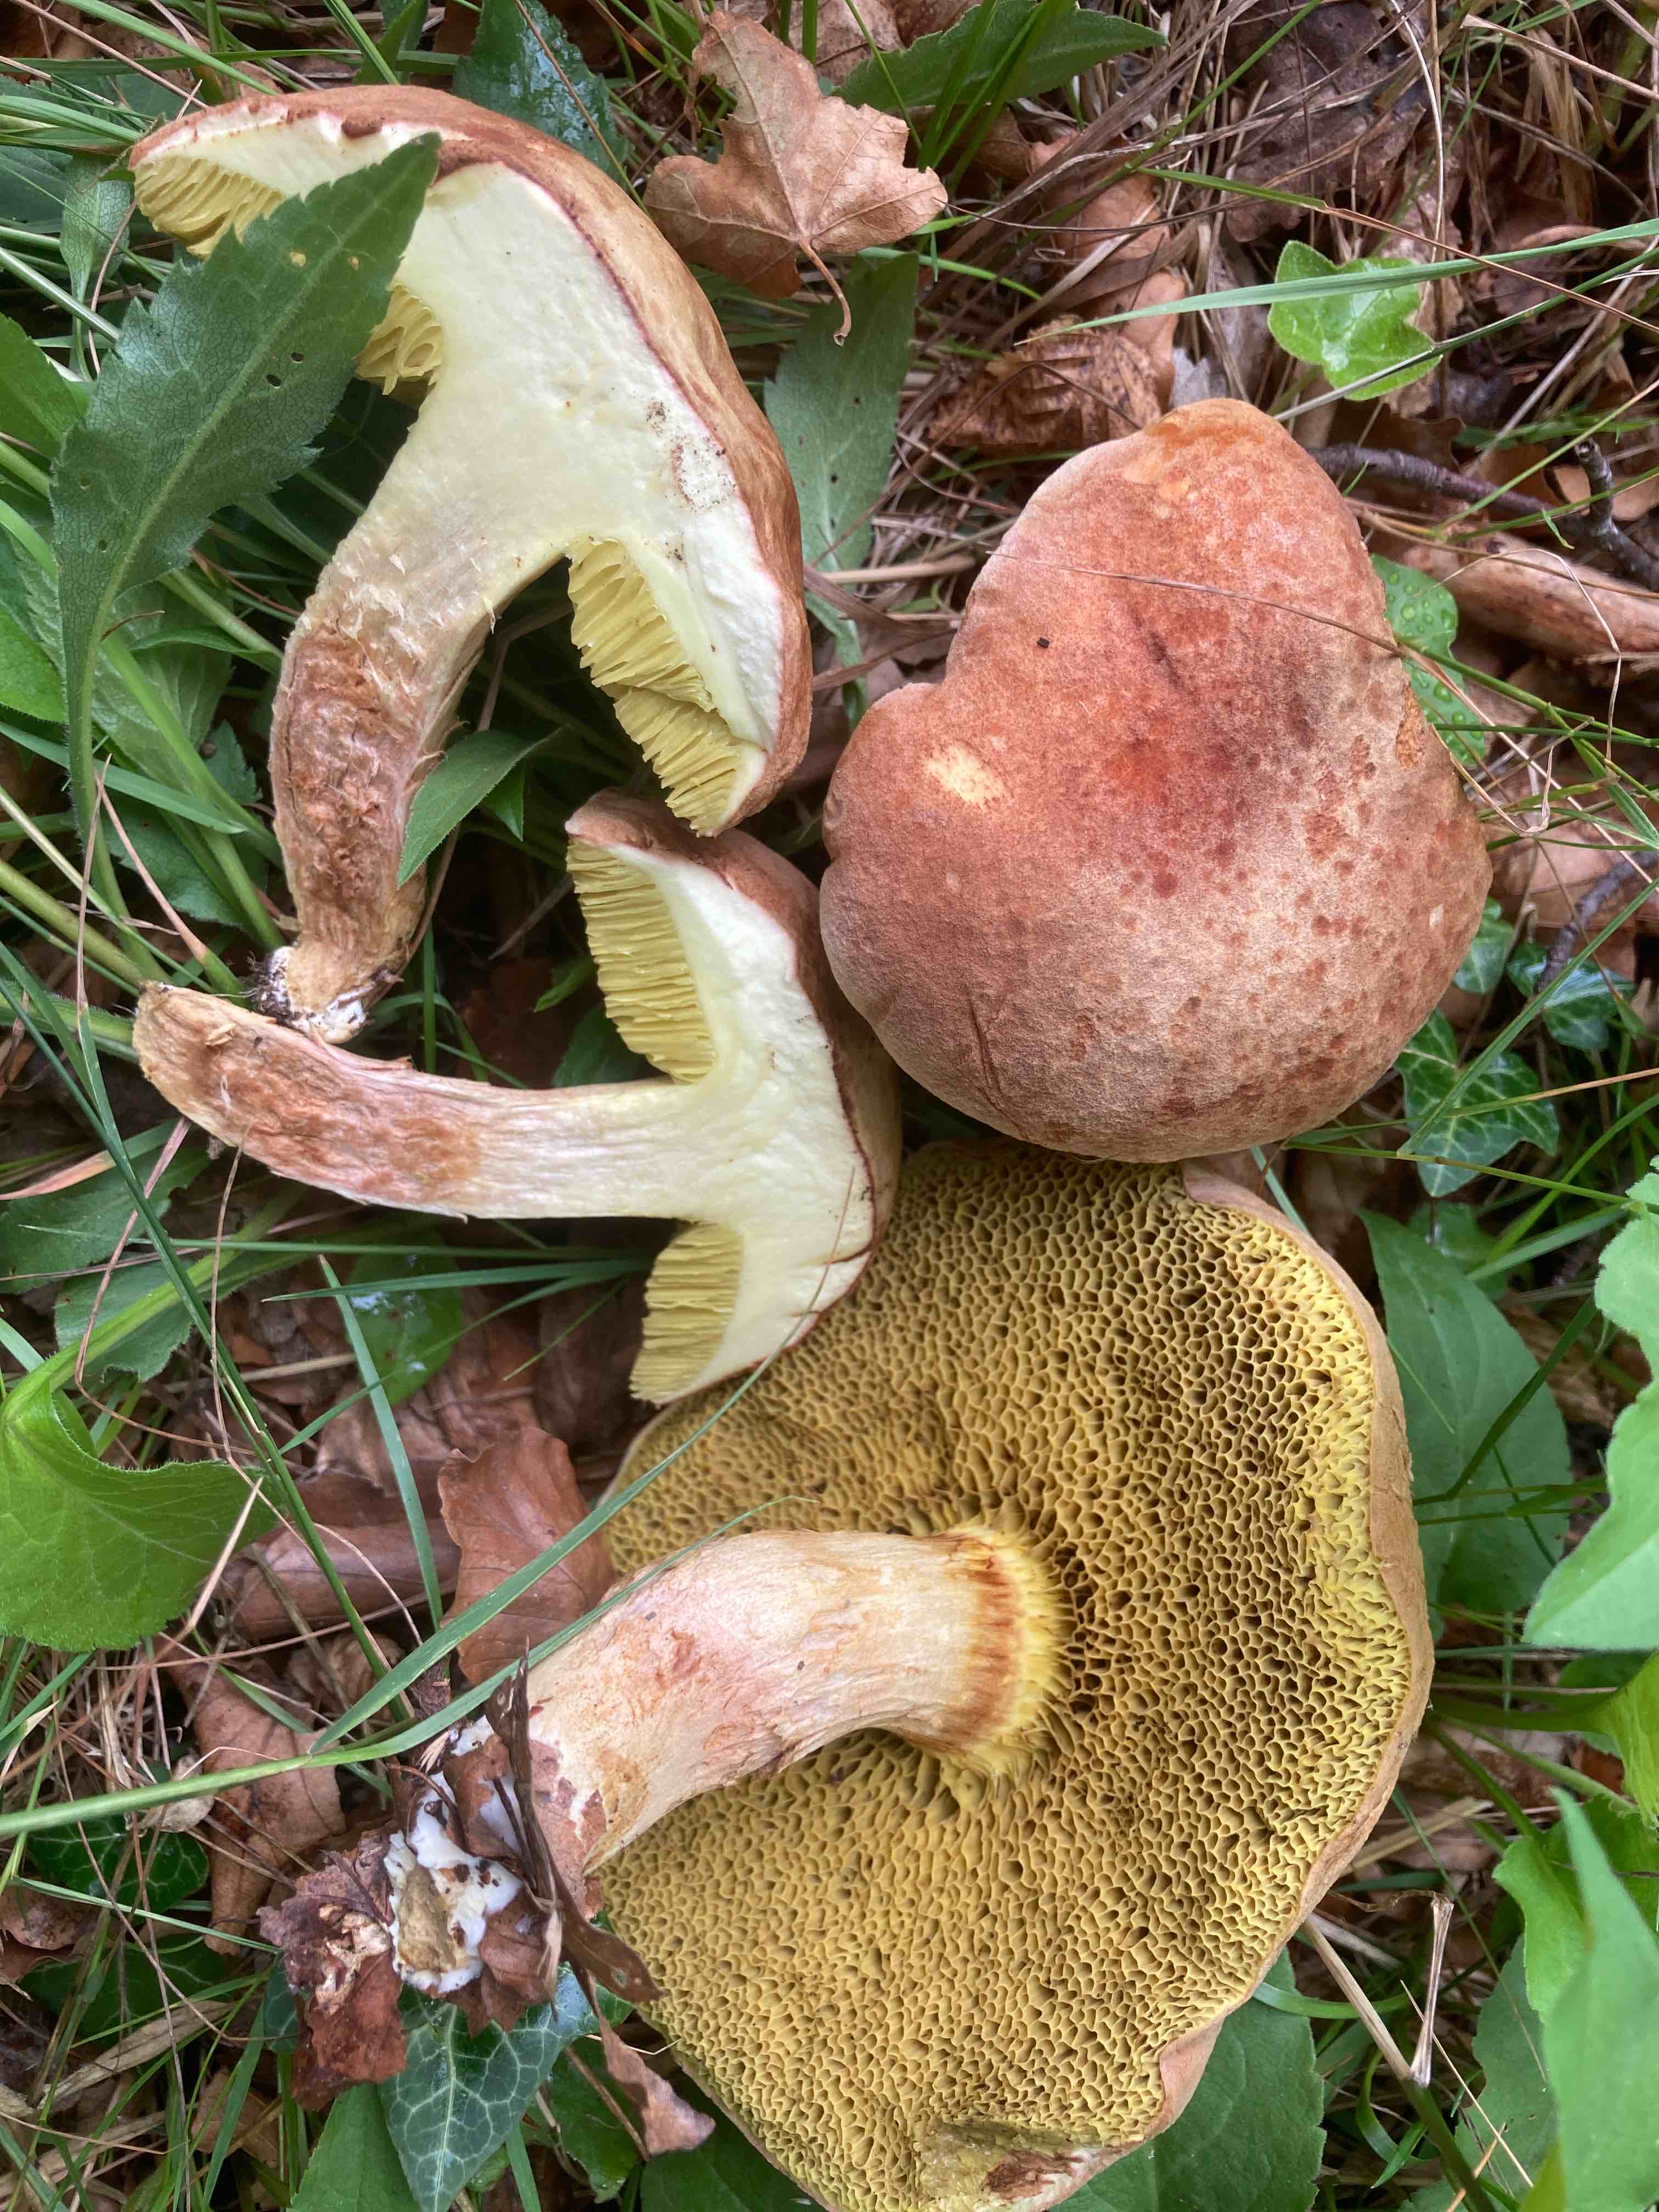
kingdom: Fungi
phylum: Basidiomycota
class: Agaricomycetes
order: Boletales
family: Boletaceae
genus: Xerocomus
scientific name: Xerocomus subtomentosus
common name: filtet rørhat
